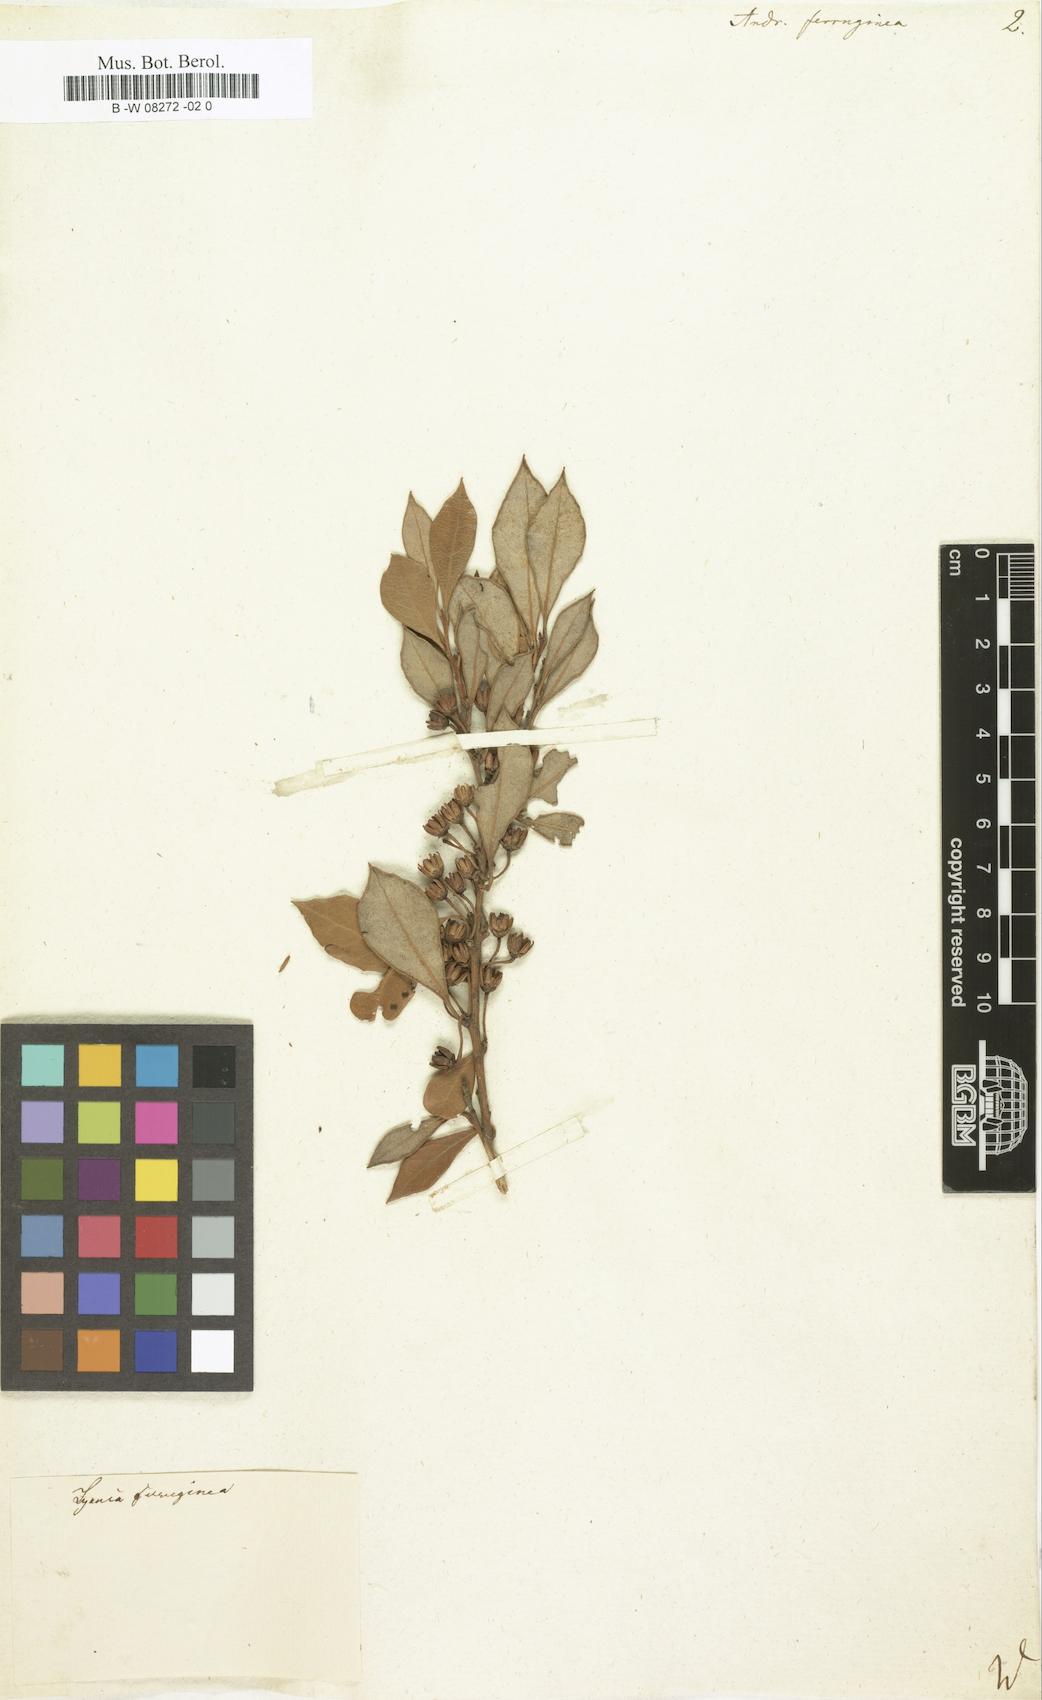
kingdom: Plantae
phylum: Tracheophyta
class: Magnoliopsida
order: Ericales
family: Ericaceae
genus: Lyonia
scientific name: Lyonia ferruginea
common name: Rusty lyonia
